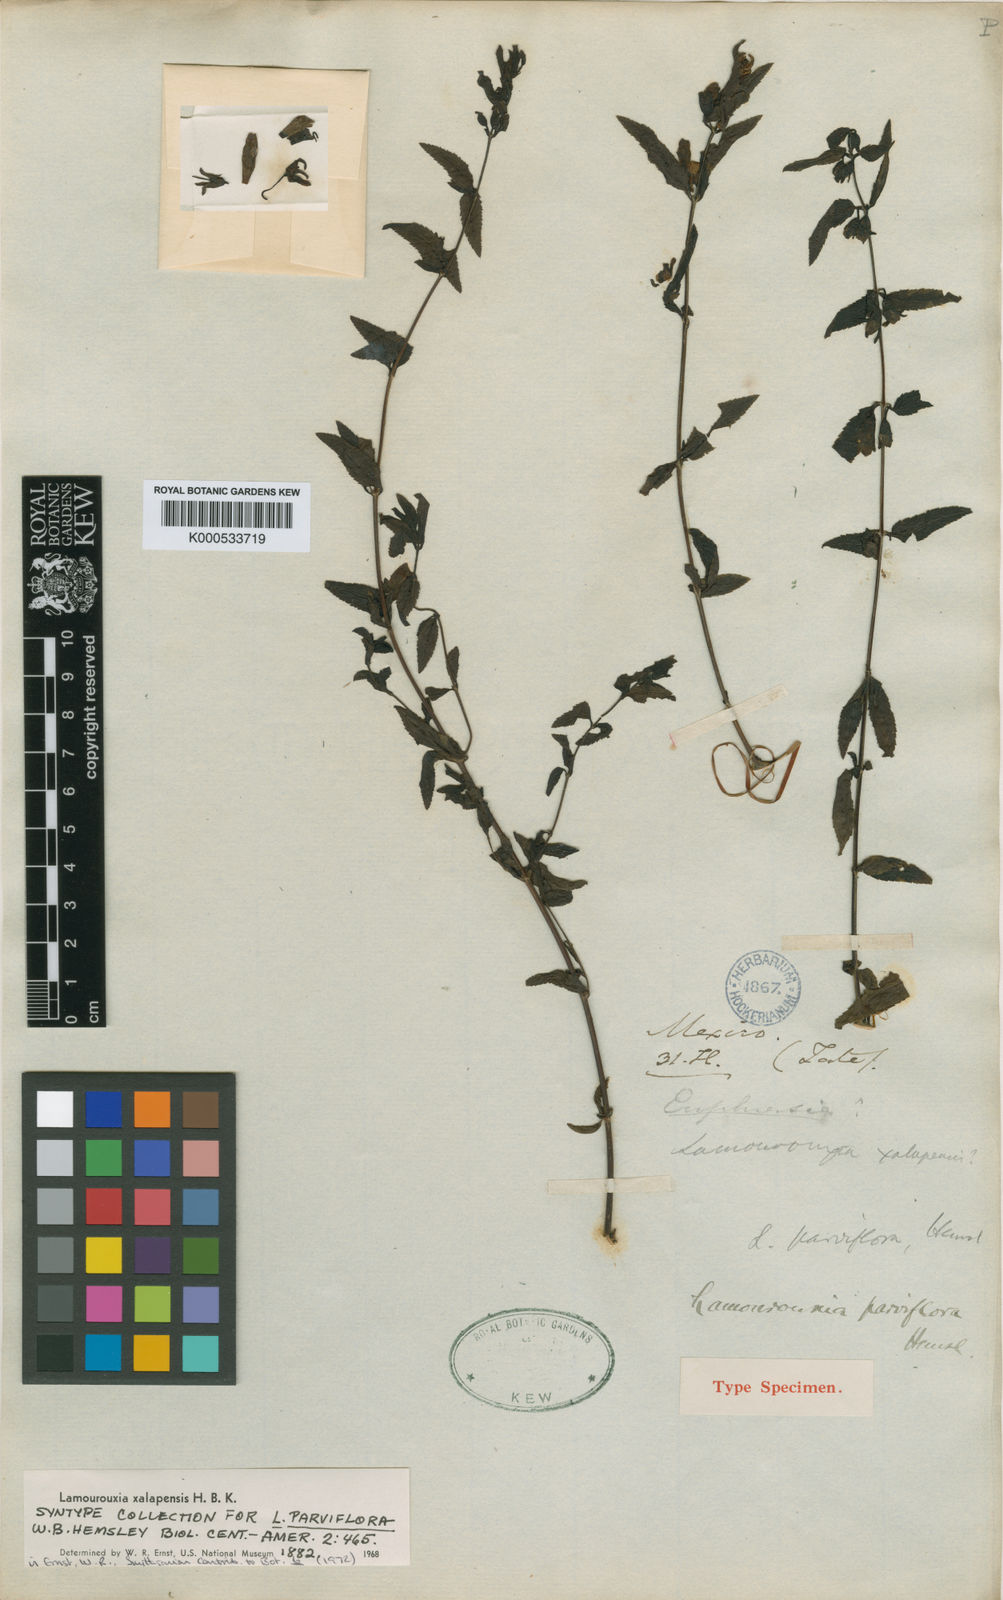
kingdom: Plantae
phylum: Tracheophyta
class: Magnoliopsida
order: Lamiales
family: Orobanchaceae
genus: Lamourouxia
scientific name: Lamourouxia xalapensis
